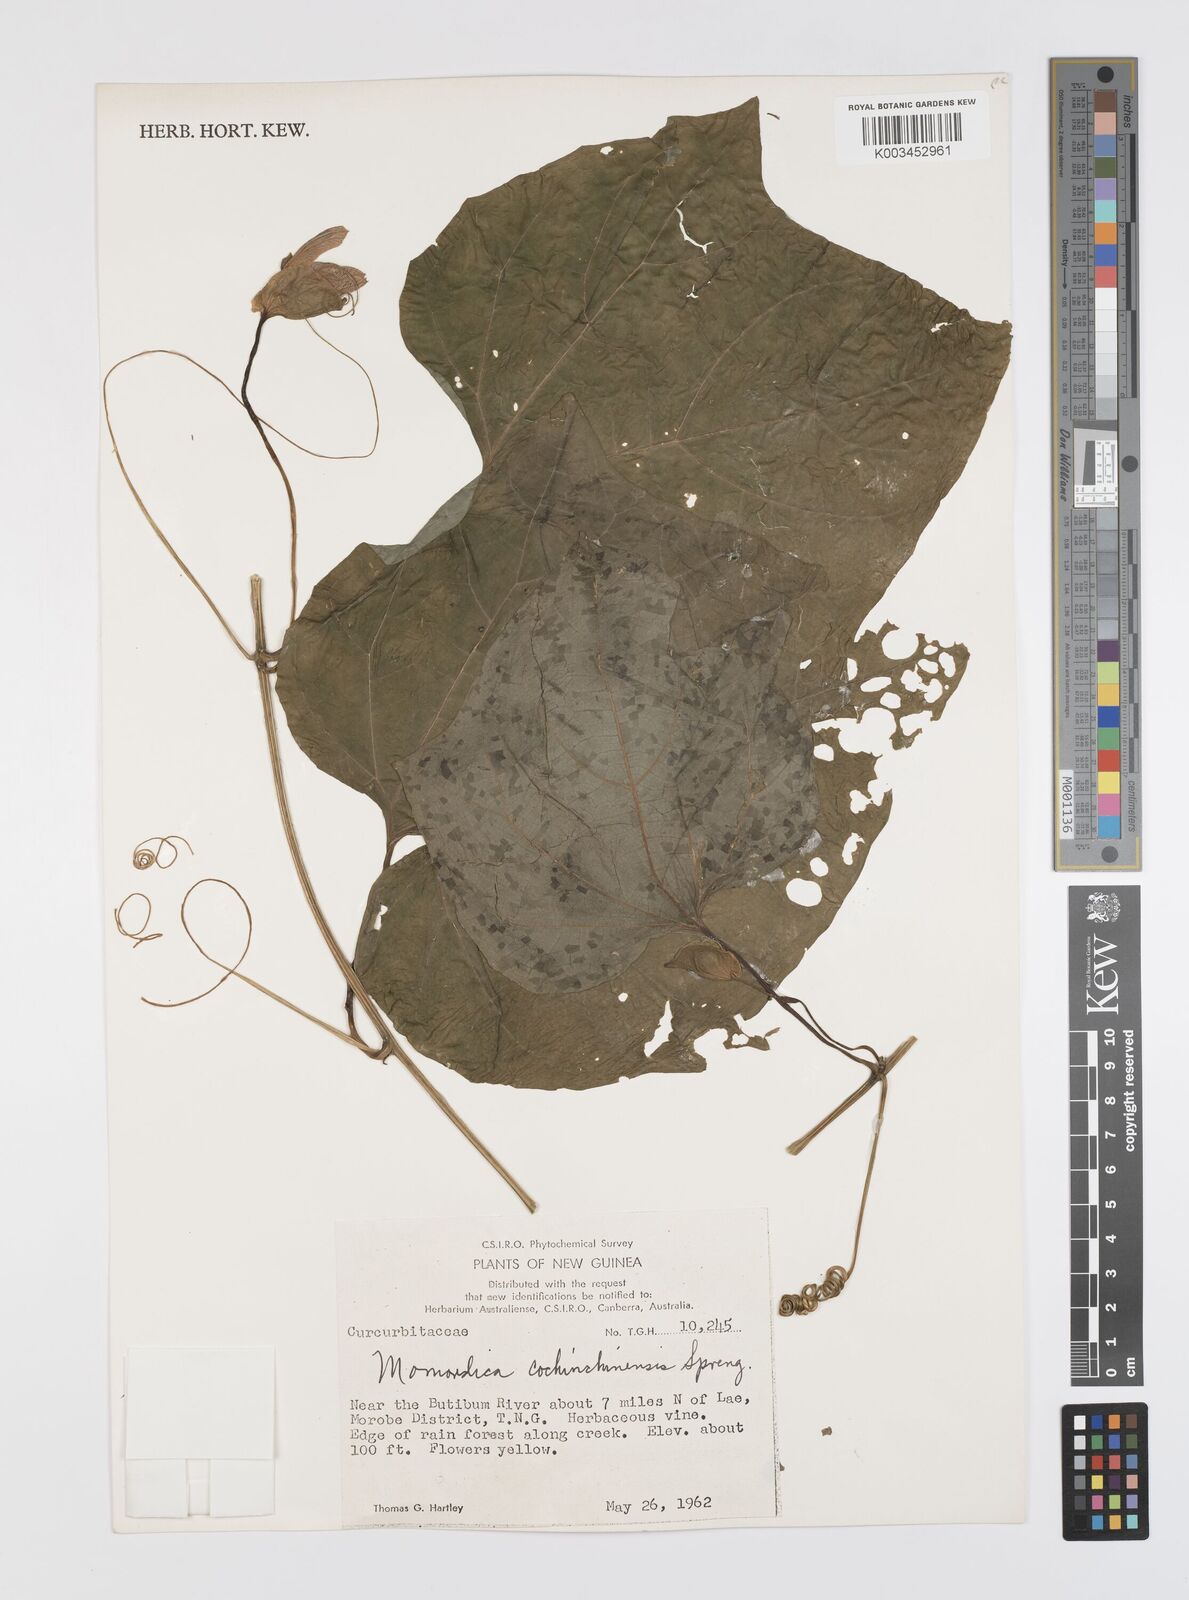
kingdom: Plantae
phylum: Tracheophyta
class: Magnoliopsida
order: Cucurbitales
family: Cucurbitaceae
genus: Momordica
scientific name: Momordica cochinchinensis
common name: Chinese bitter-cucumber
